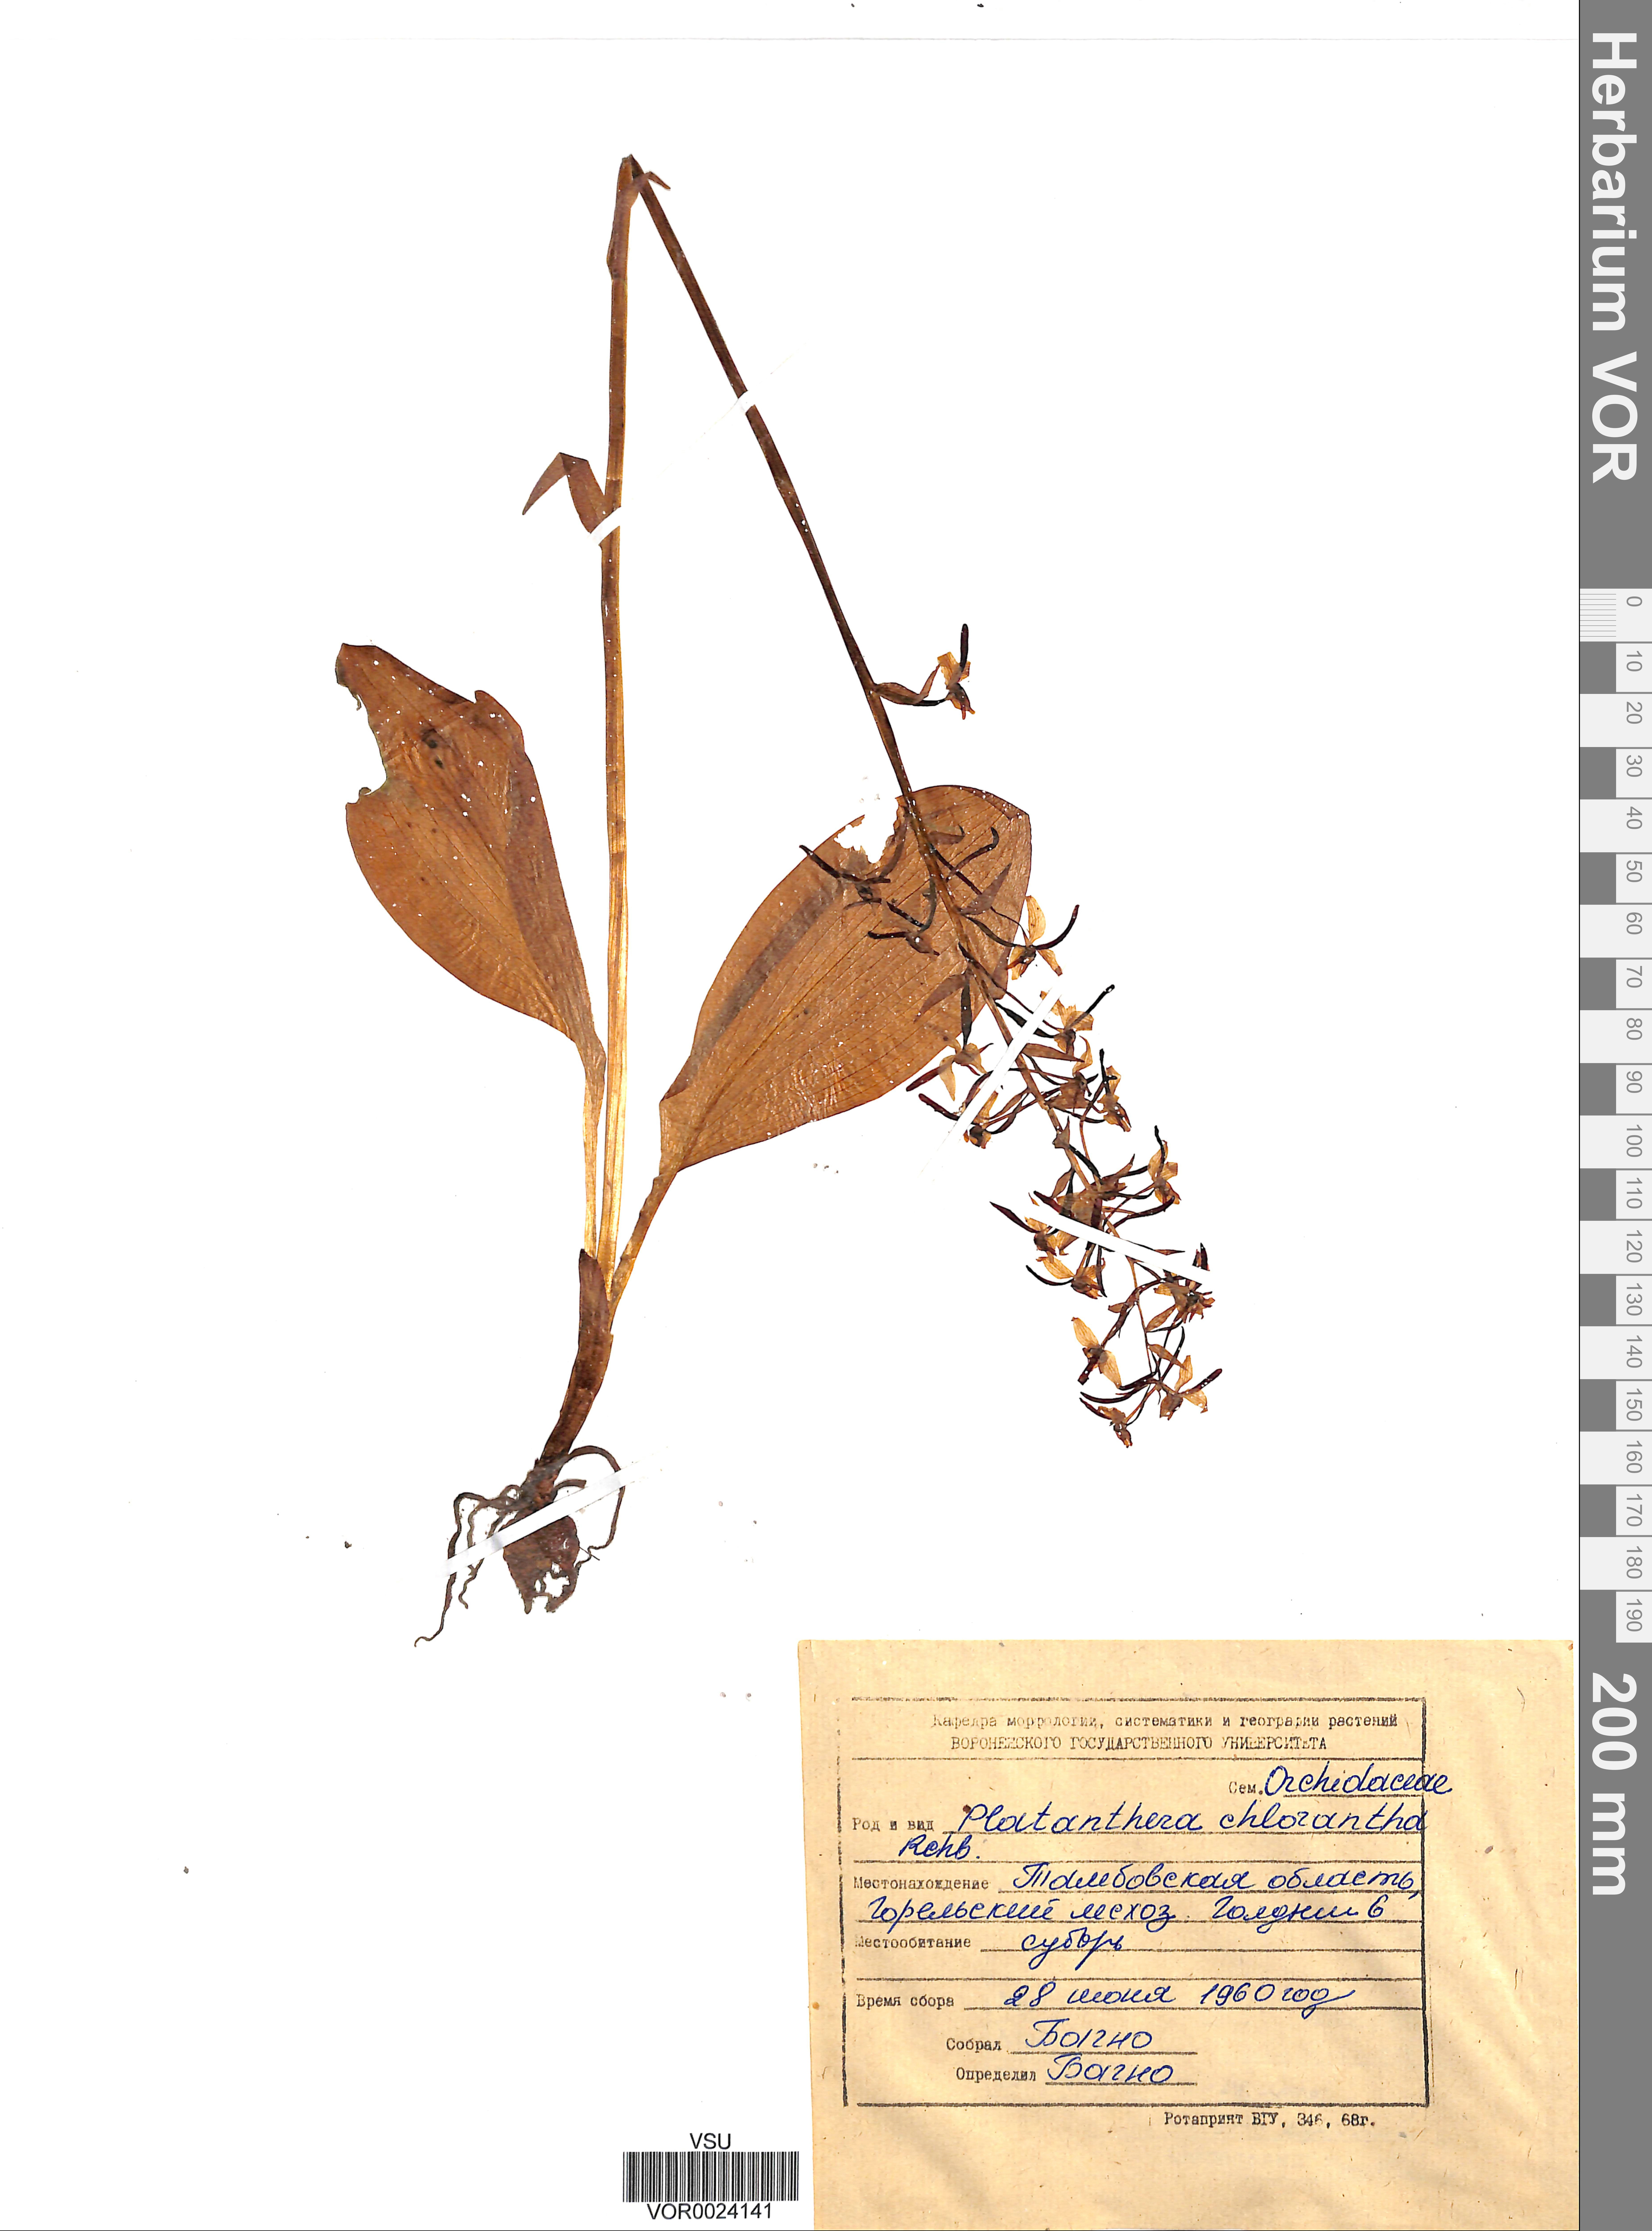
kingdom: Plantae
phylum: Tracheophyta
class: Liliopsida
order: Asparagales
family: Orchidaceae
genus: Platanthera
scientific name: Platanthera chlorantha
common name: Greater butterfly-orchid
